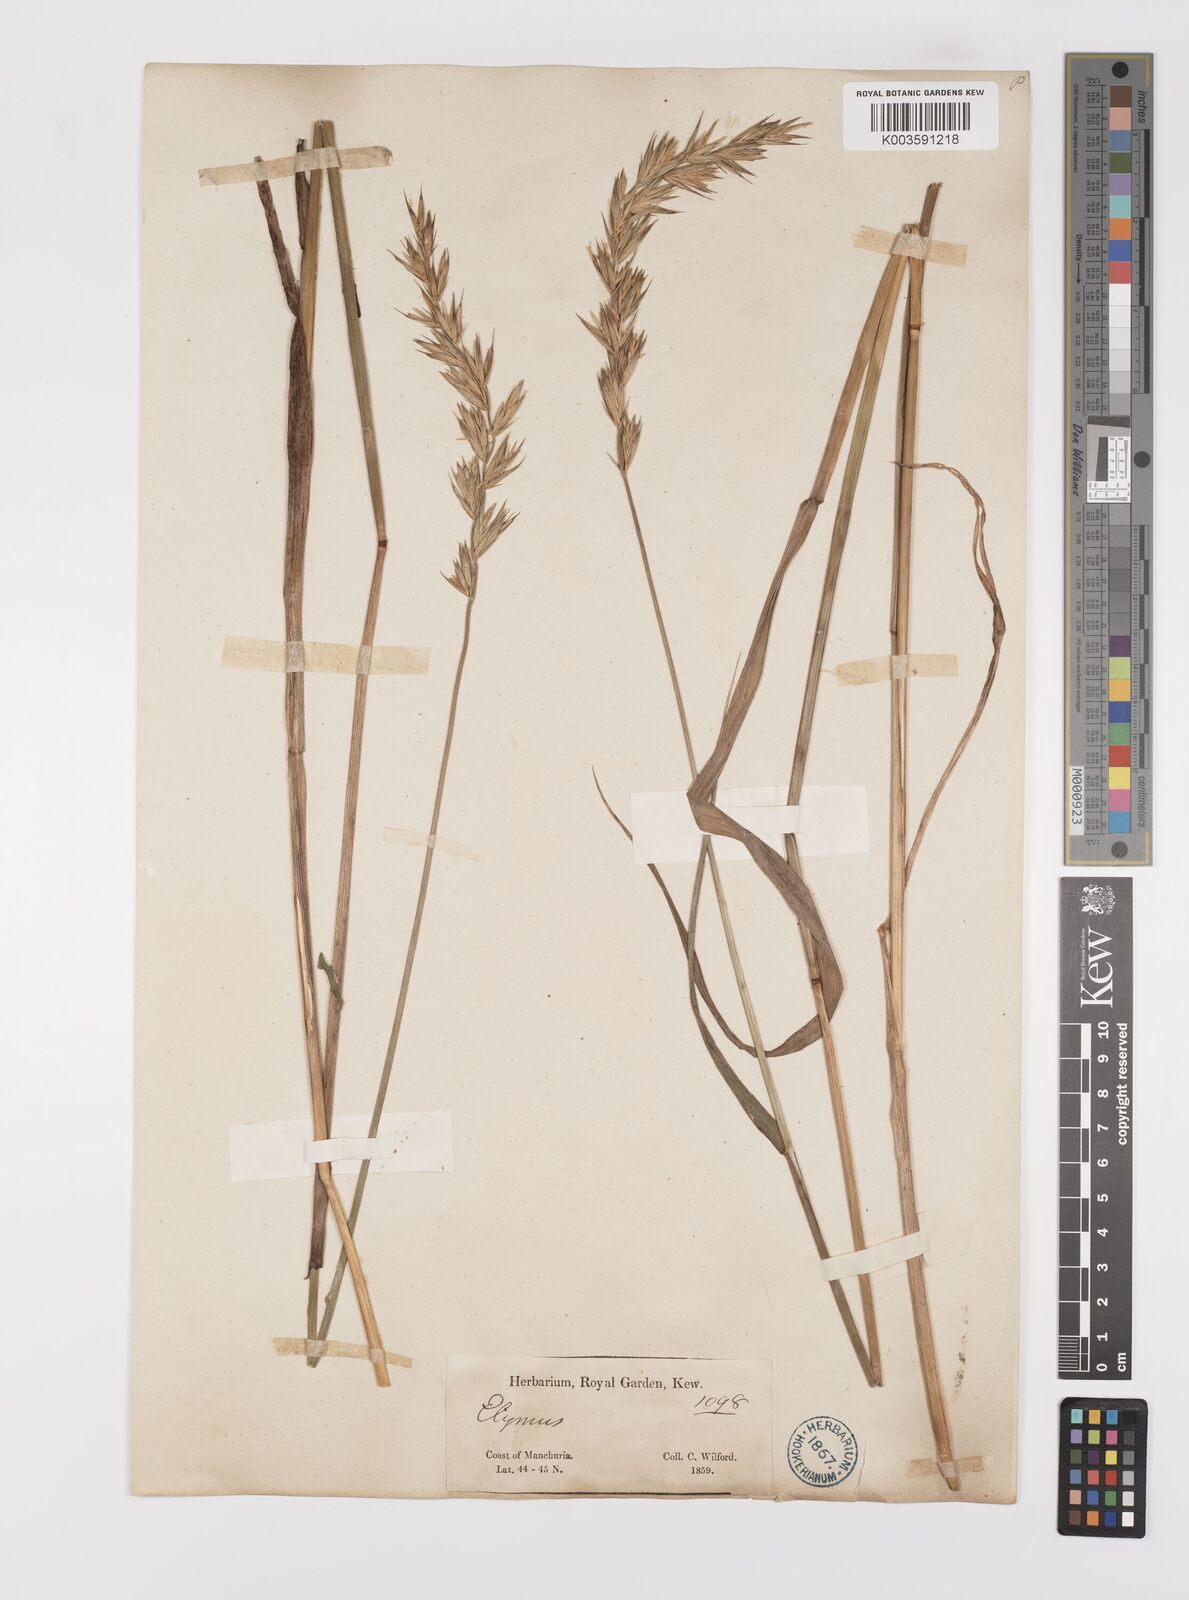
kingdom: Plantae
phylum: Tracheophyta
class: Liliopsida
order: Poales
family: Poaceae
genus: Leymus
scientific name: Leymus
